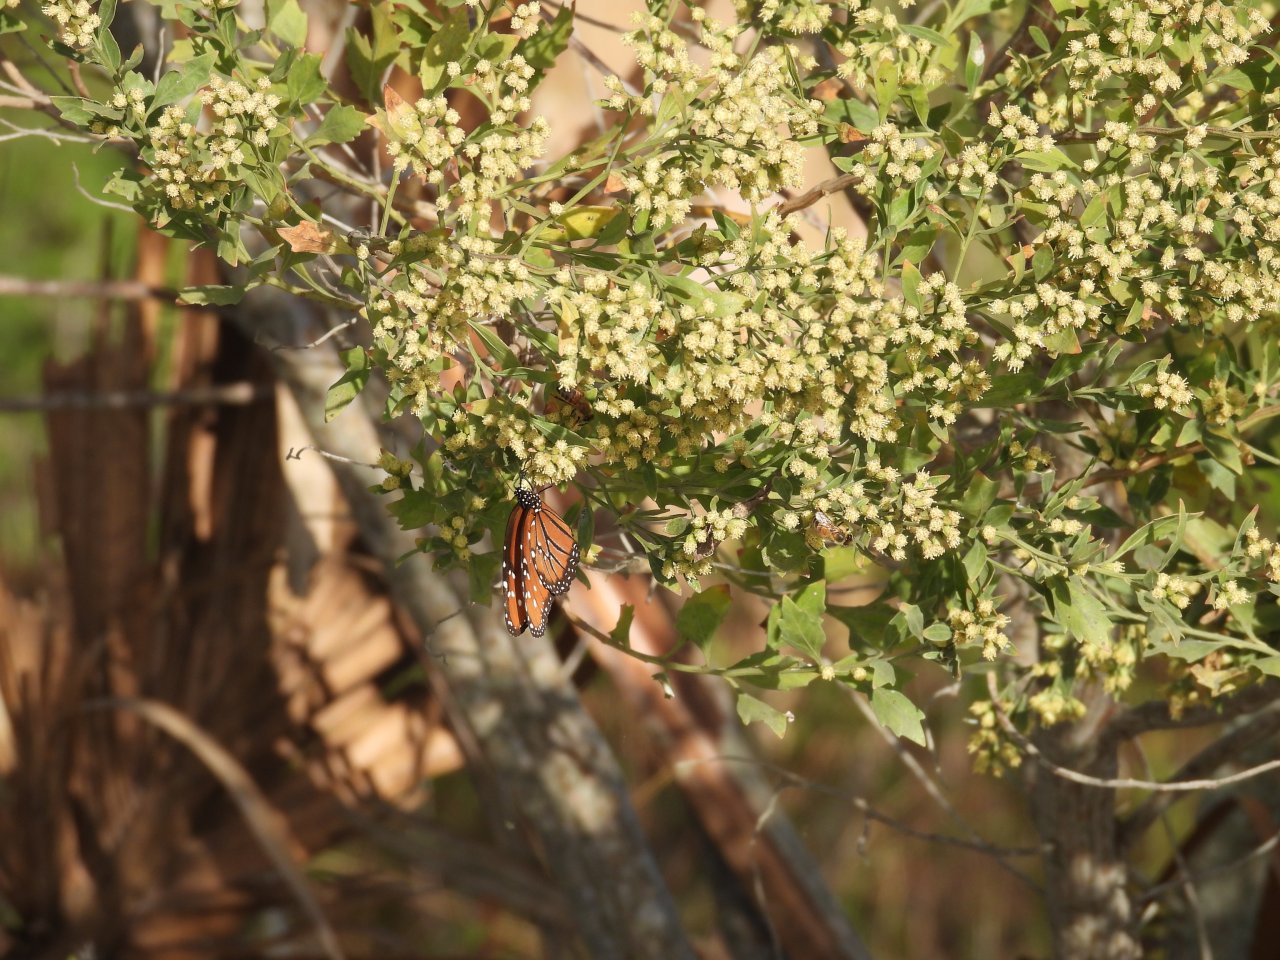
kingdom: Animalia
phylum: Arthropoda
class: Insecta
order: Lepidoptera
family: Nymphalidae
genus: Danaus
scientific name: Danaus gilippus
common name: Queen
